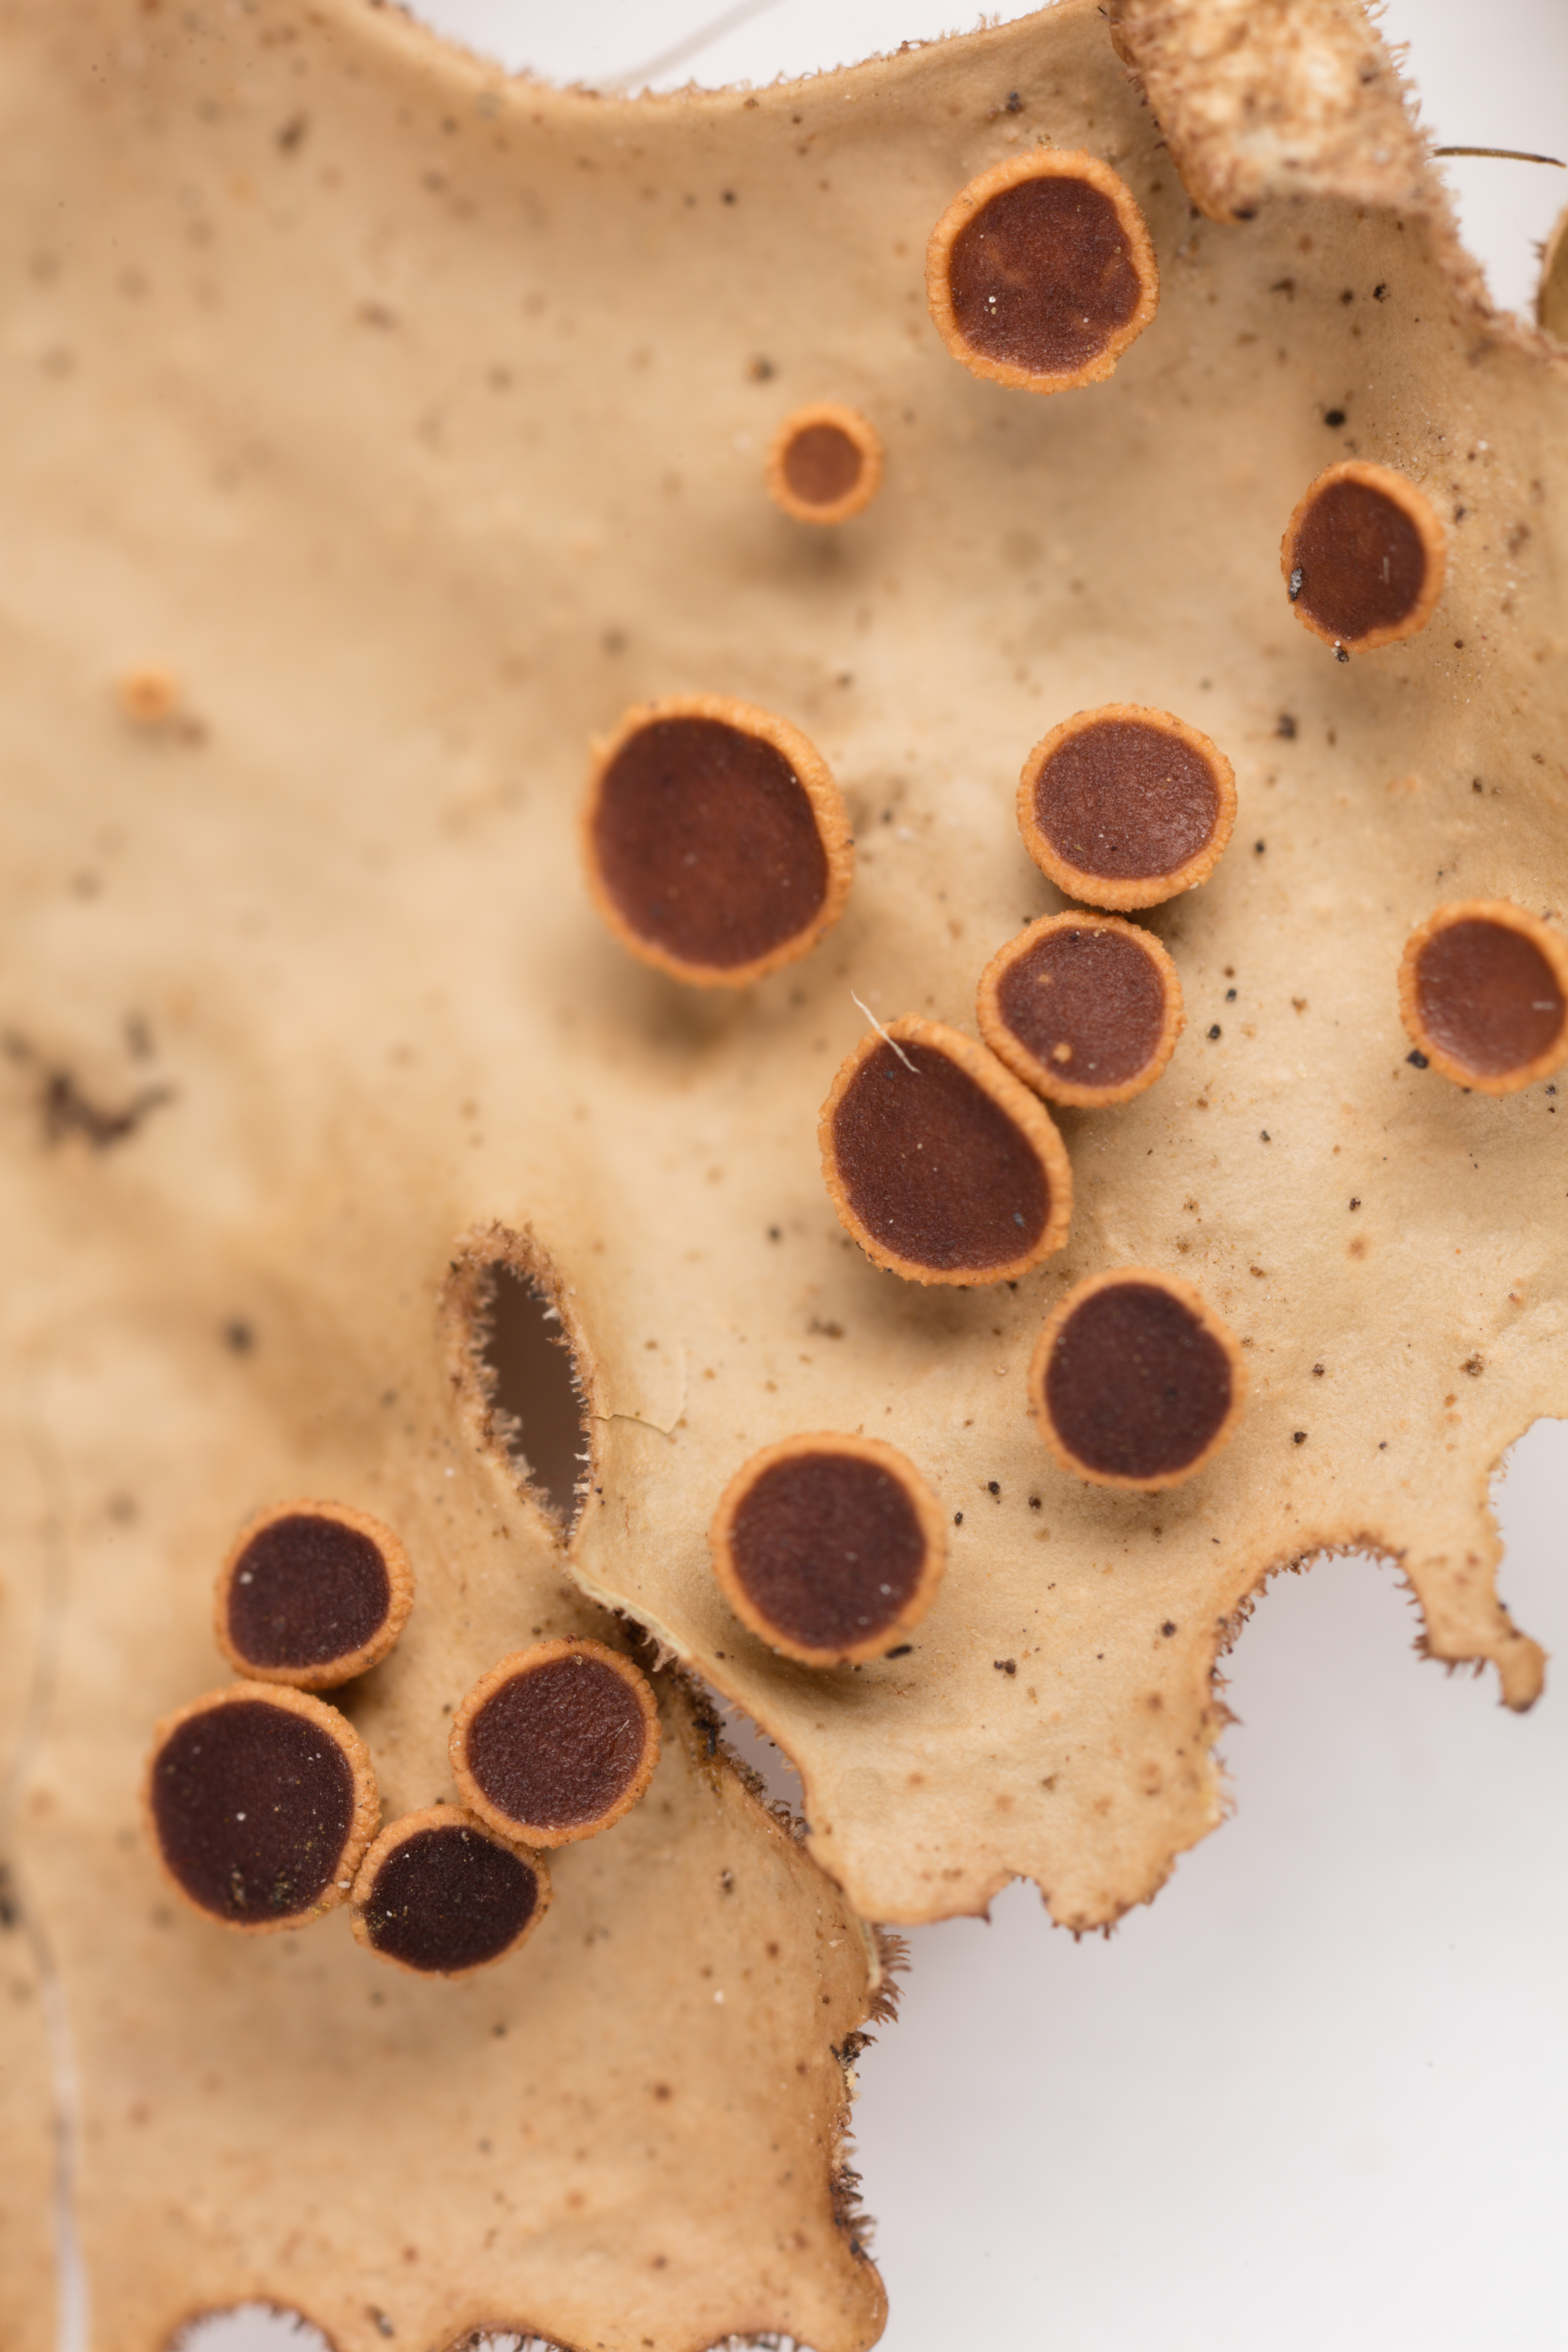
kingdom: Fungi
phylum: Ascomycota
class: Lecanoromycetes
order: Peltigerales
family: Lobariaceae
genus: Sticta
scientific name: Sticta stipitata
